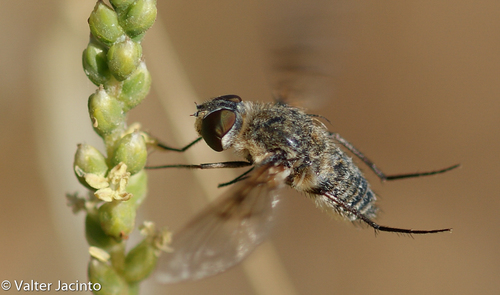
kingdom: Animalia
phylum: Arthropoda
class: Insecta
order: Diptera
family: Bombyliidae
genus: Spogostylum
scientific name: Spogostylum isis
